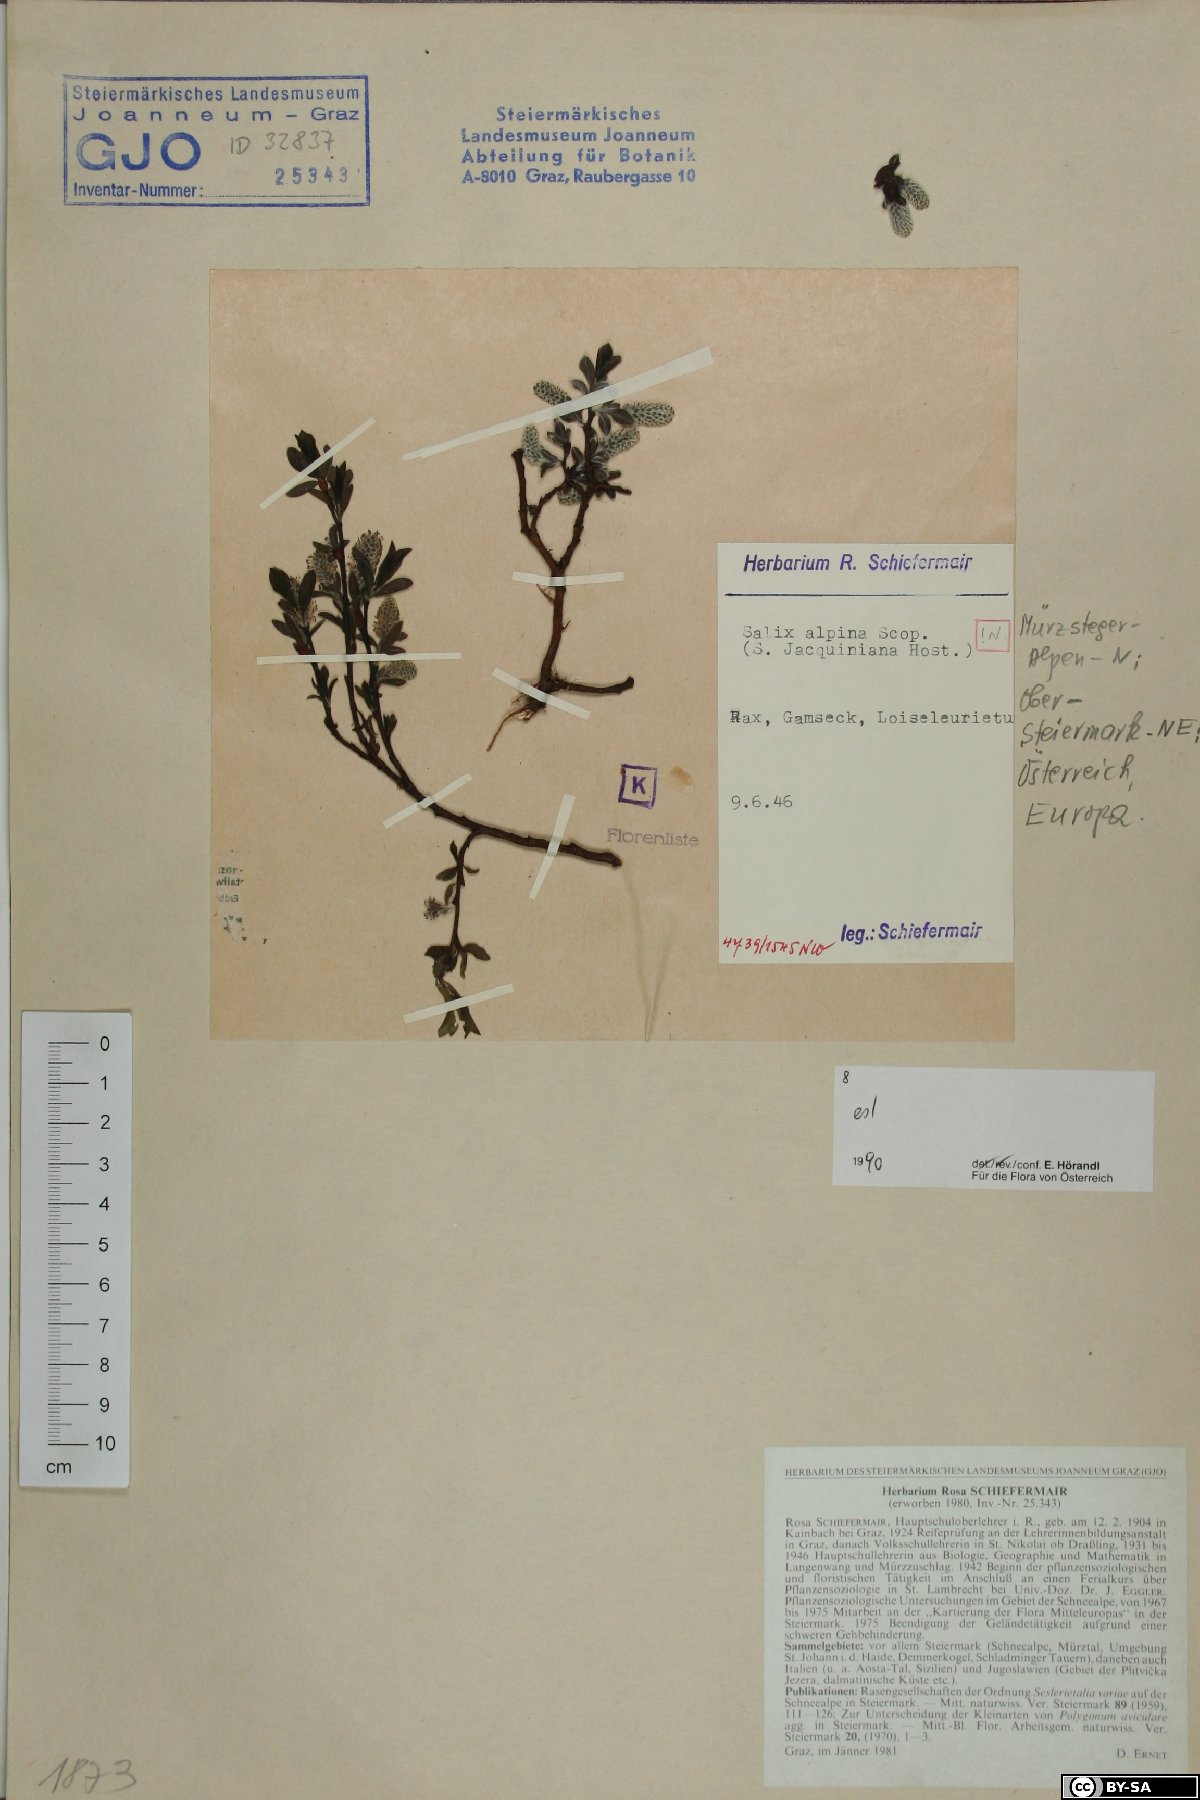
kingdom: Plantae
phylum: Tracheophyta
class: Magnoliopsida
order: Malpighiales
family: Salicaceae
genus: Salix
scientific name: Salix alpina
